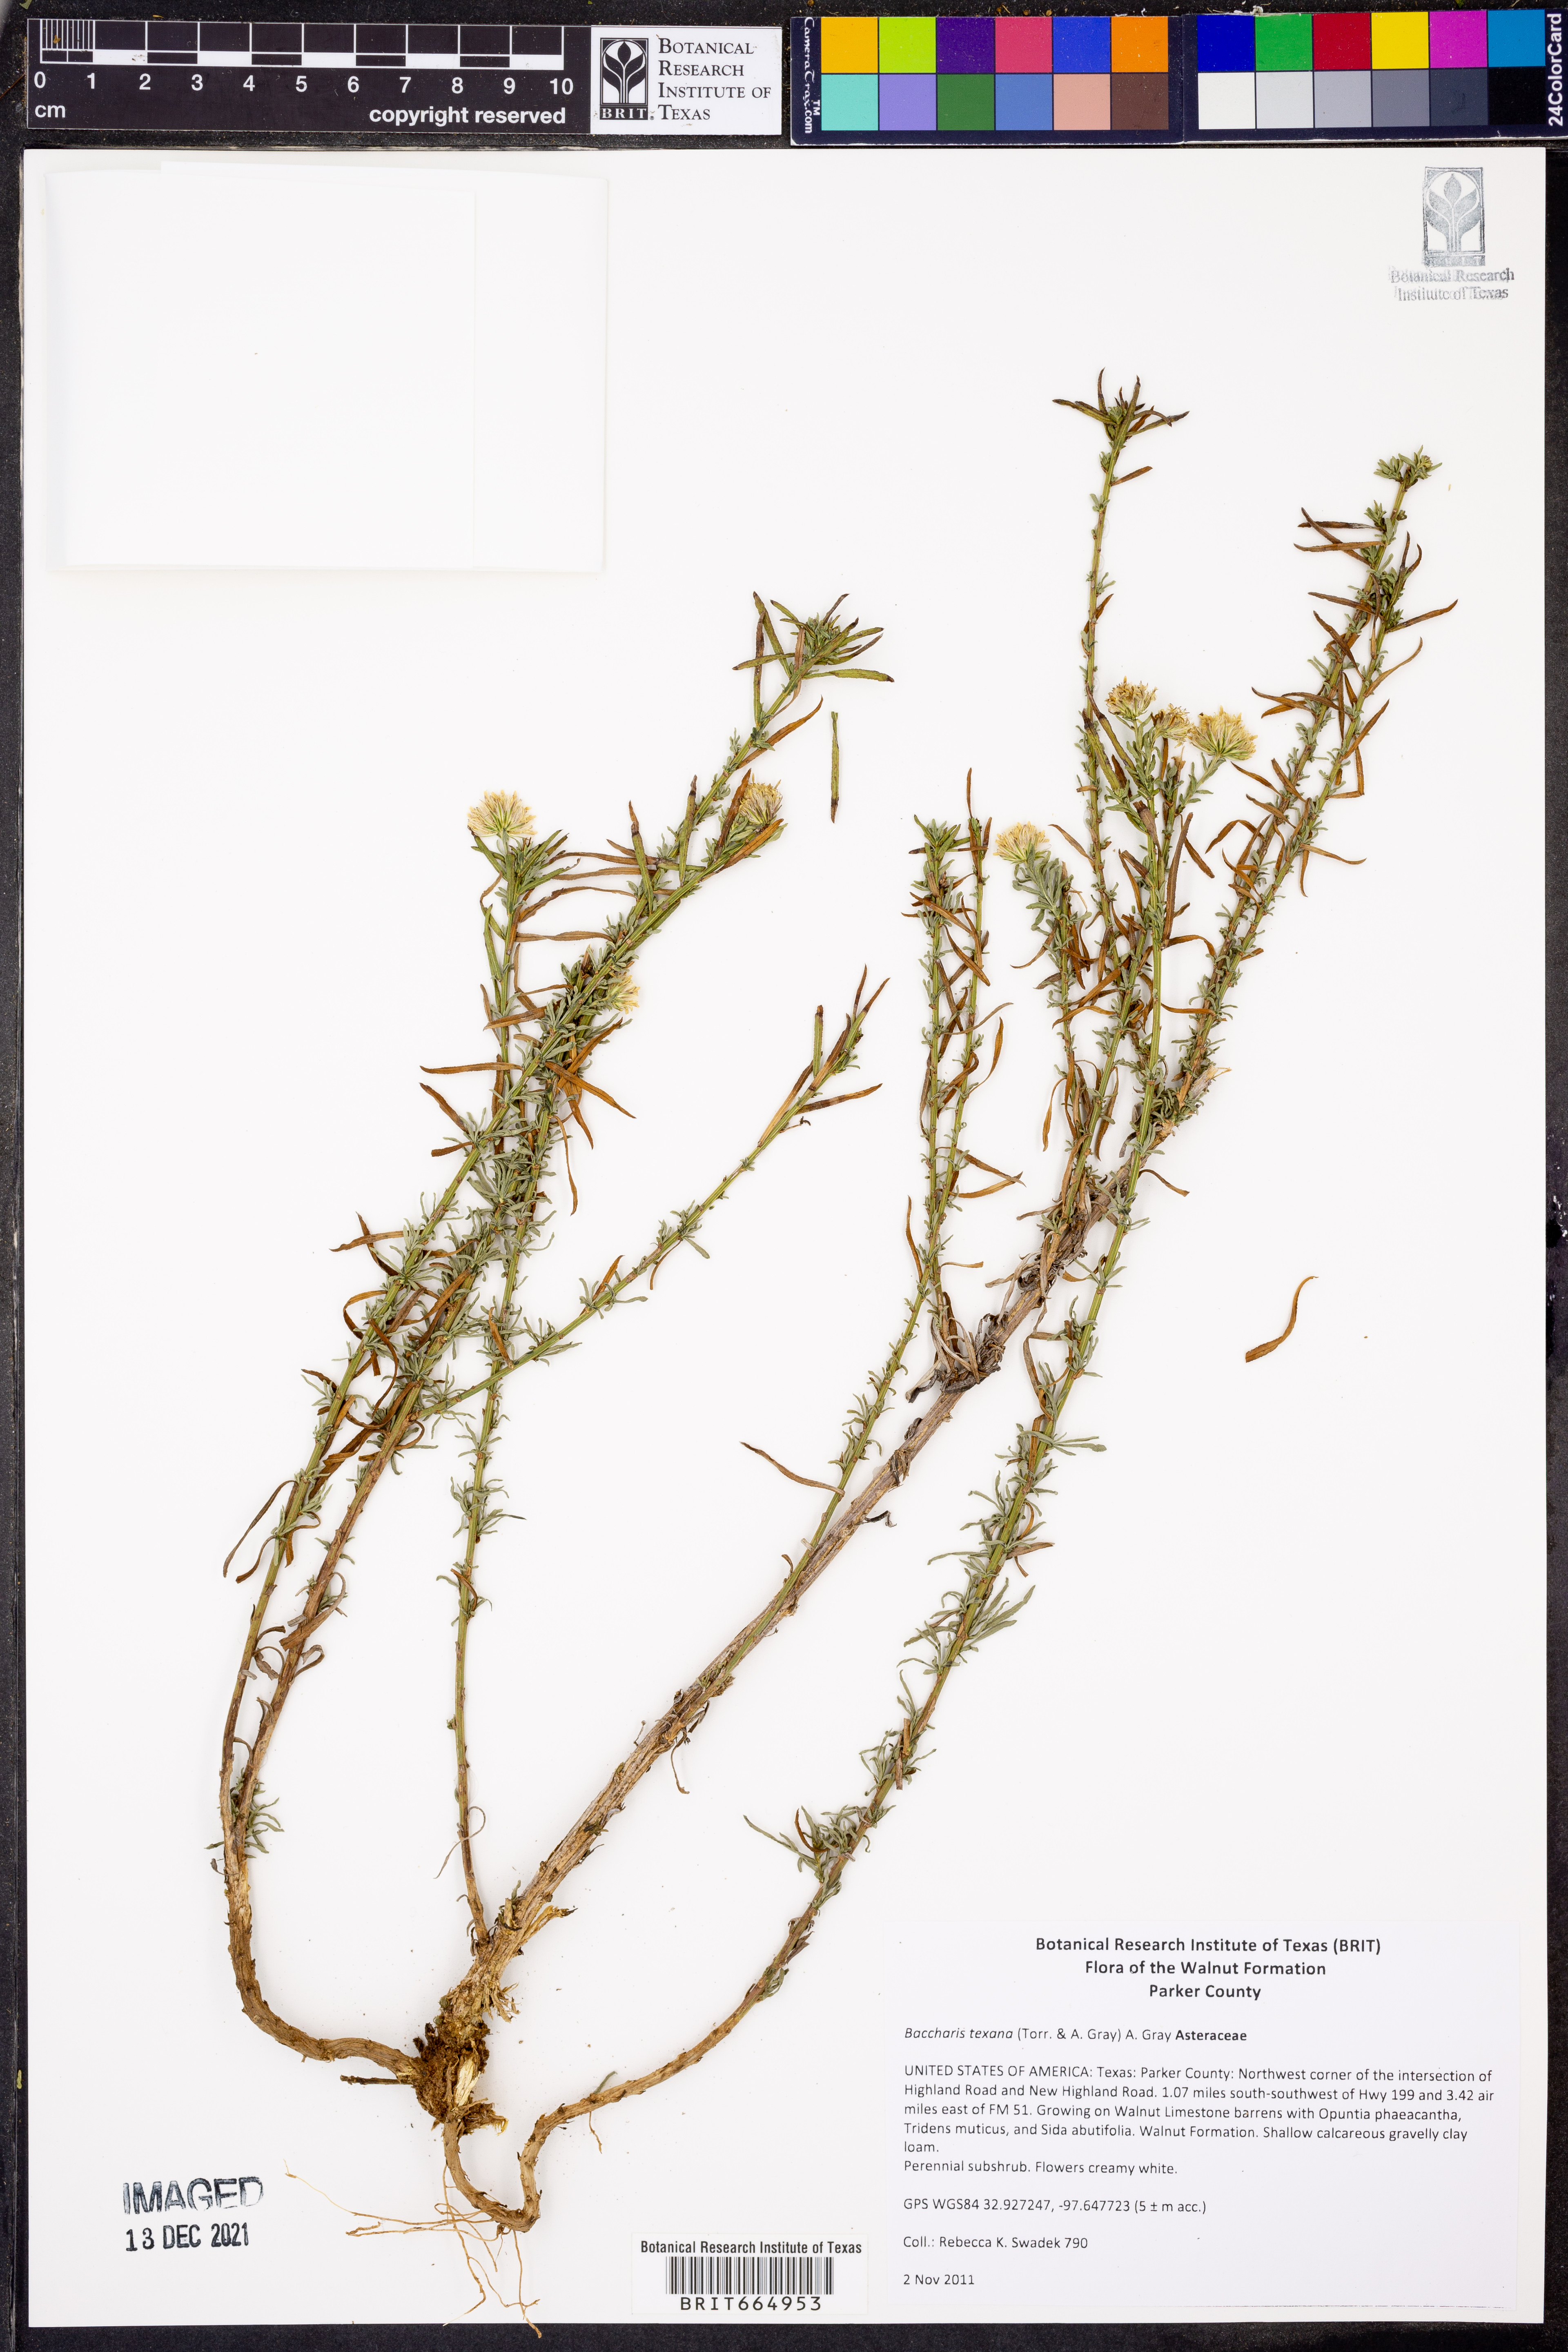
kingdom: Plantae
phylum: Tracheophyta
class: Magnoliopsida
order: Asterales
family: Asteraceae
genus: Baccharis
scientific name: Baccharis texana
